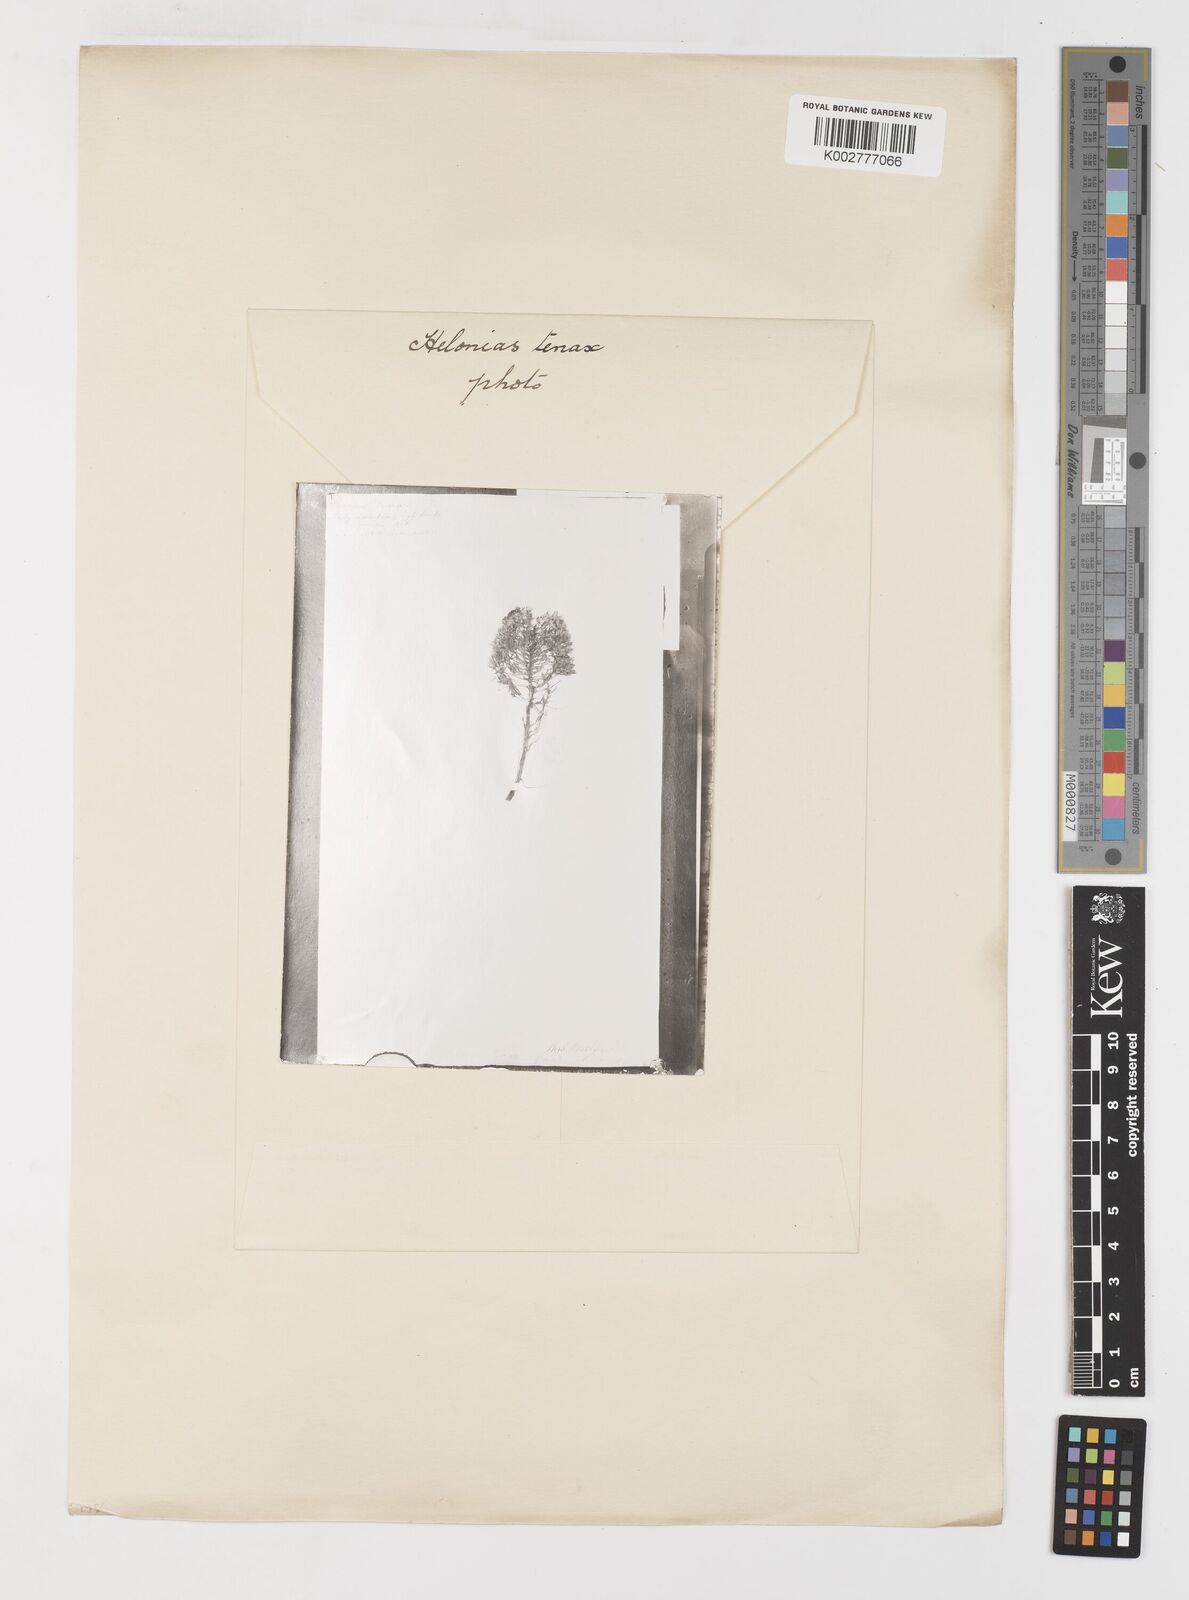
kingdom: Plantae
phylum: Tracheophyta
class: Liliopsida
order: Liliales
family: Melanthiaceae
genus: Xerophyllum
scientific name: Xerophyllum tenax
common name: Bear-grass
